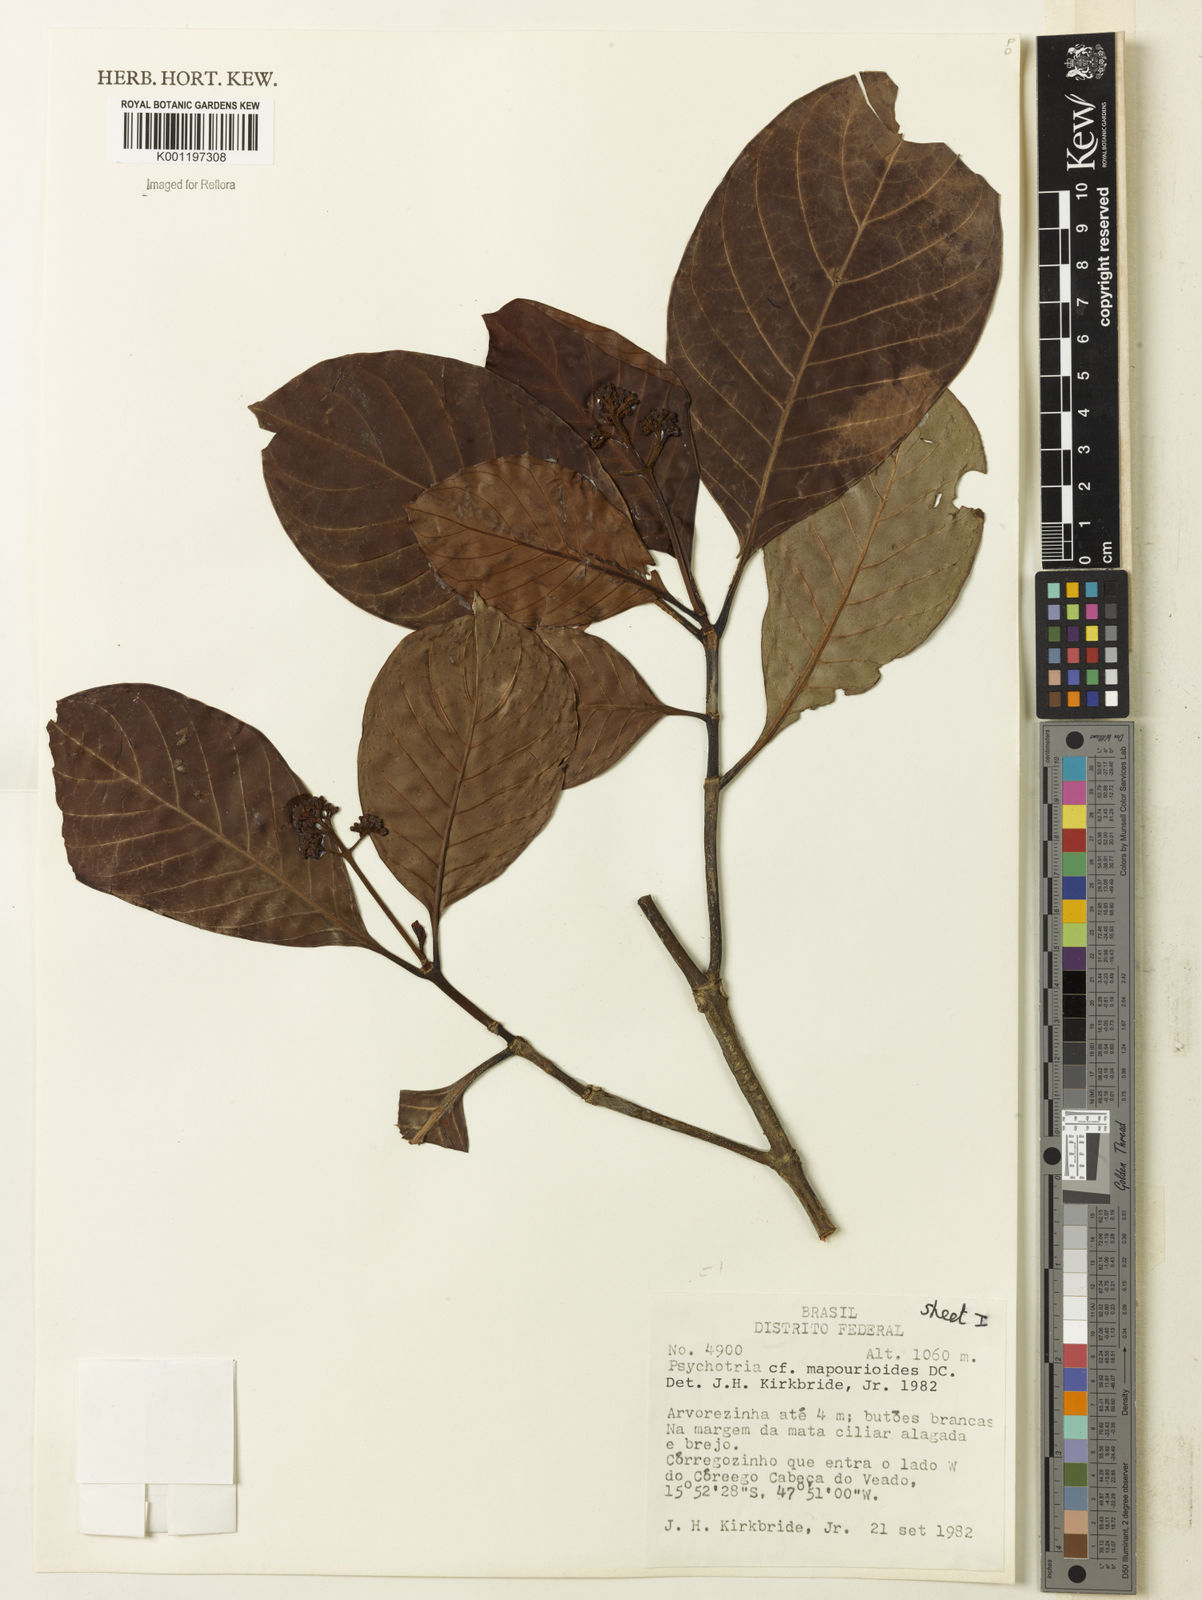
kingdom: Plantae
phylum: Tracheophyta
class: Magnoliopsida
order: Gentianales
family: Rubiaceae
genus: Psychotria
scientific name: Psychotria pedunculosa
